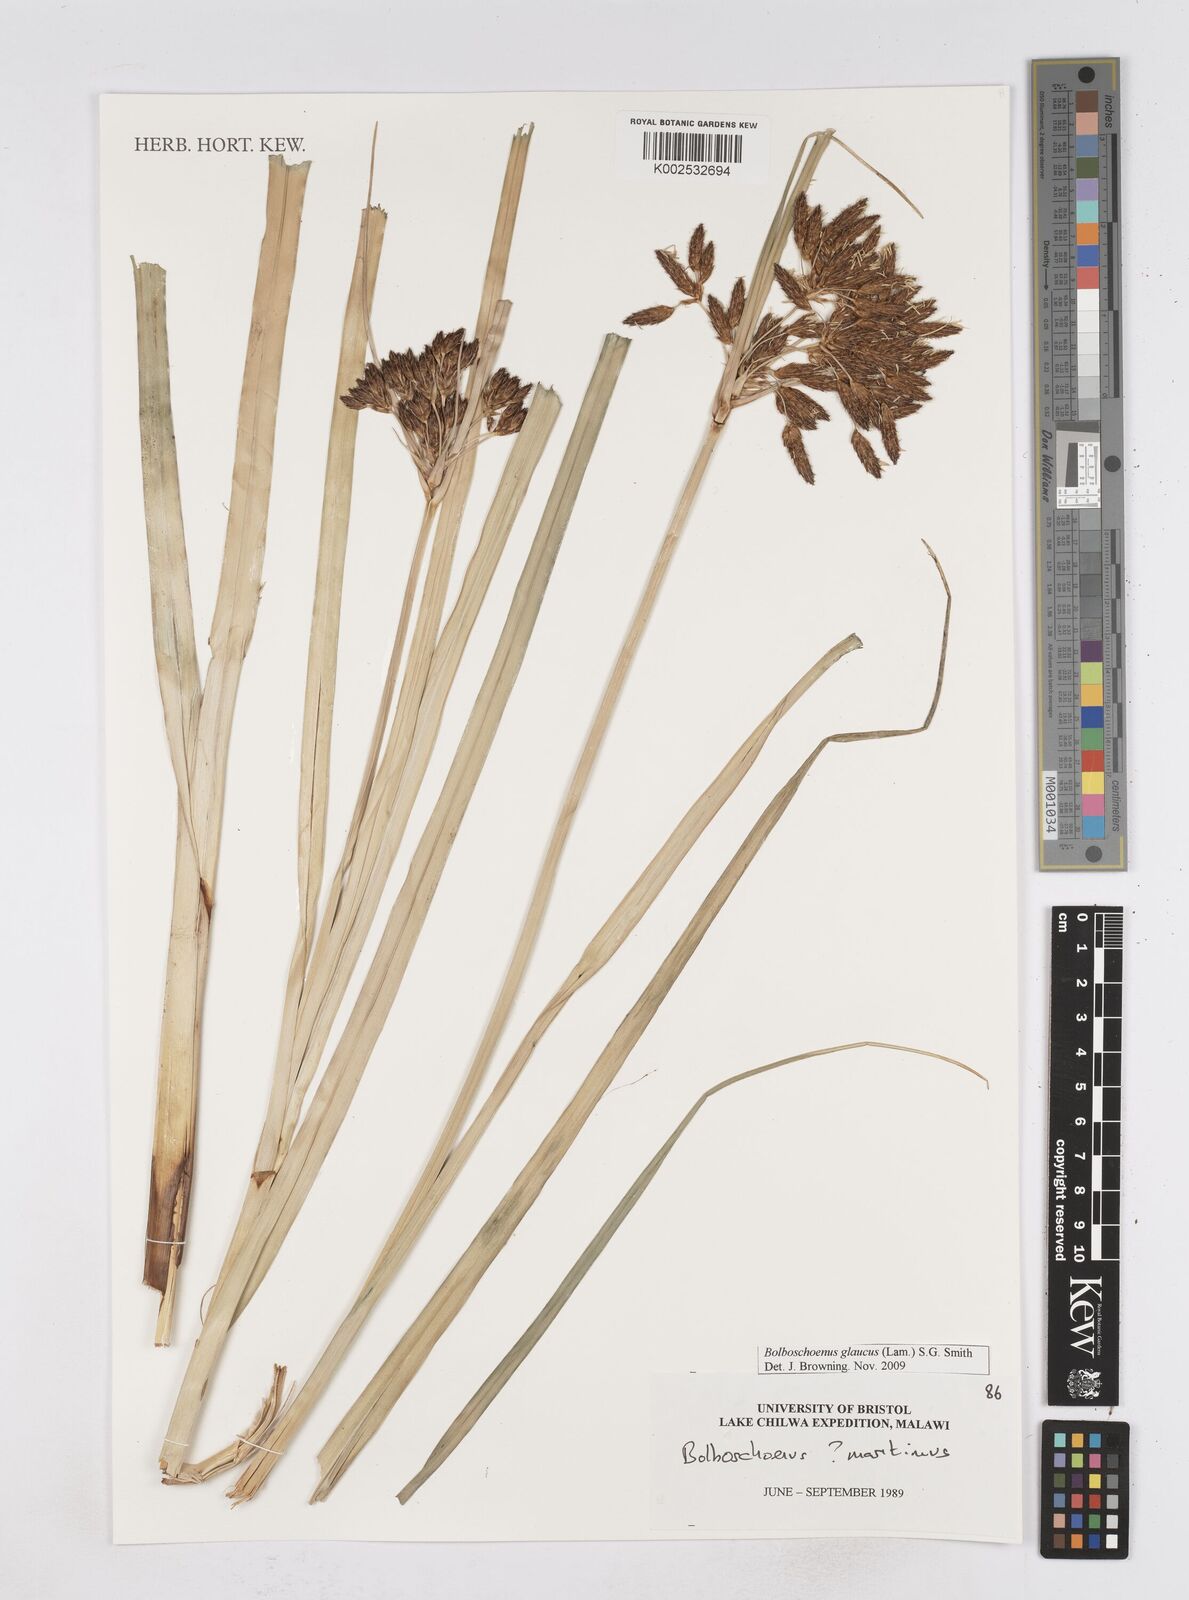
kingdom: Plantae
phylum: Tracheophyta
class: Liliopsida
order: Poales
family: Cyperaceae
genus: Bolboschoenus
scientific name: Bolboschoenus glaucus
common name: Tuberous bulrush
